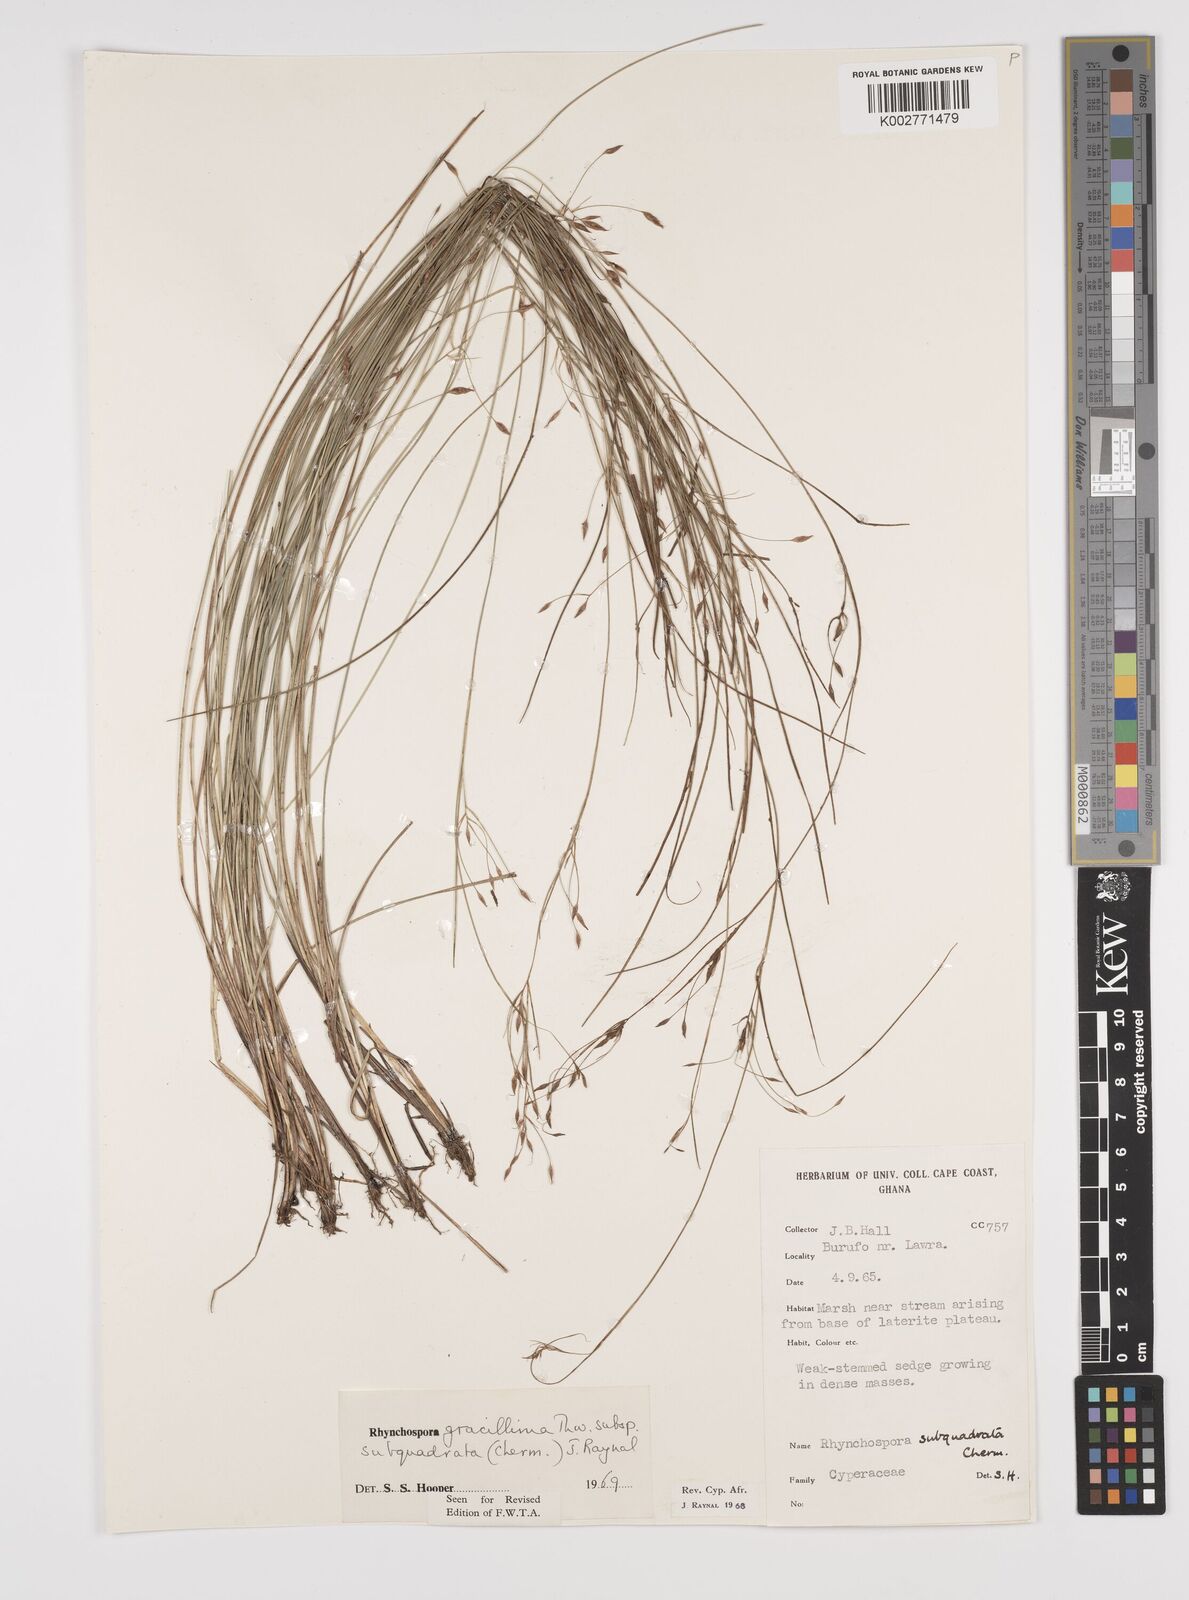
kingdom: Plantae
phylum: Tracheophyta
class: Liliopsida
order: Poales
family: Cyperaceae
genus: Rhynchospora
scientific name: Rhynchospora gracillima
